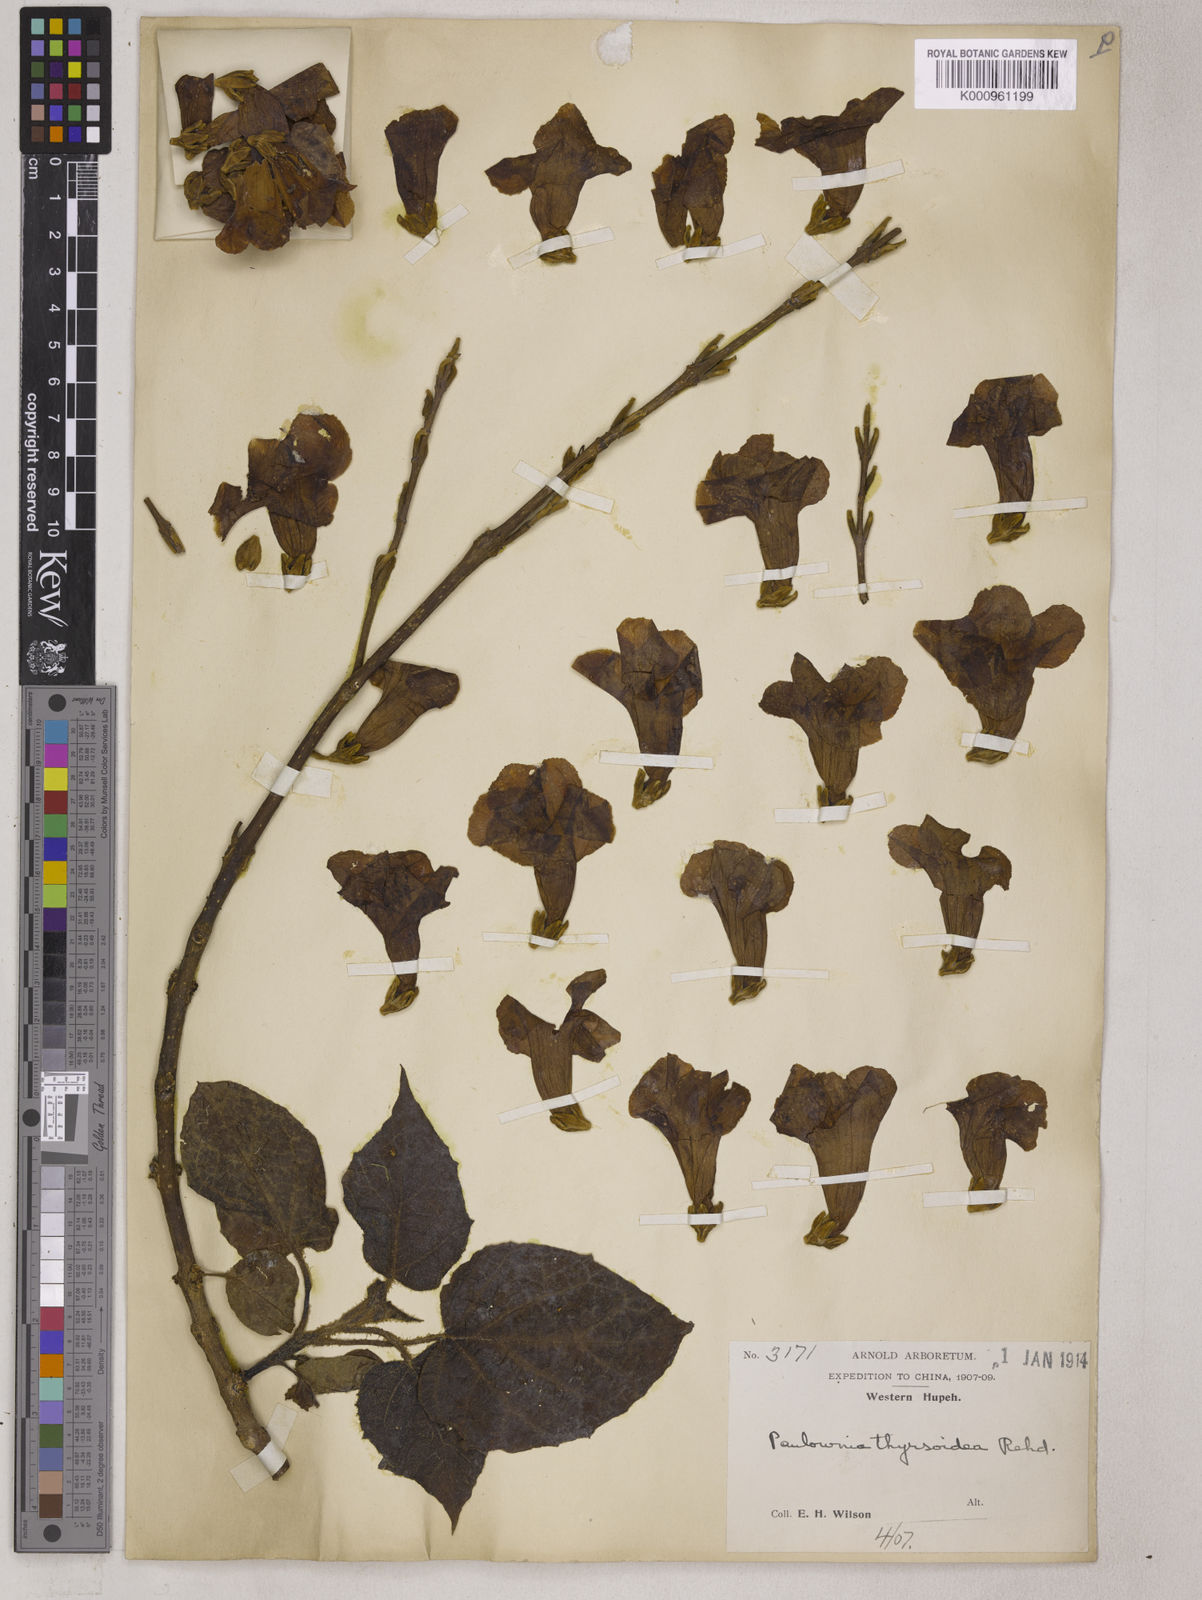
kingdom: Plantae
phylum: Tracheophyta
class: Magnoliopsida
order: Lamiales
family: Paulowniaceae
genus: Paulownia
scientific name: Paulownia kawakamii
